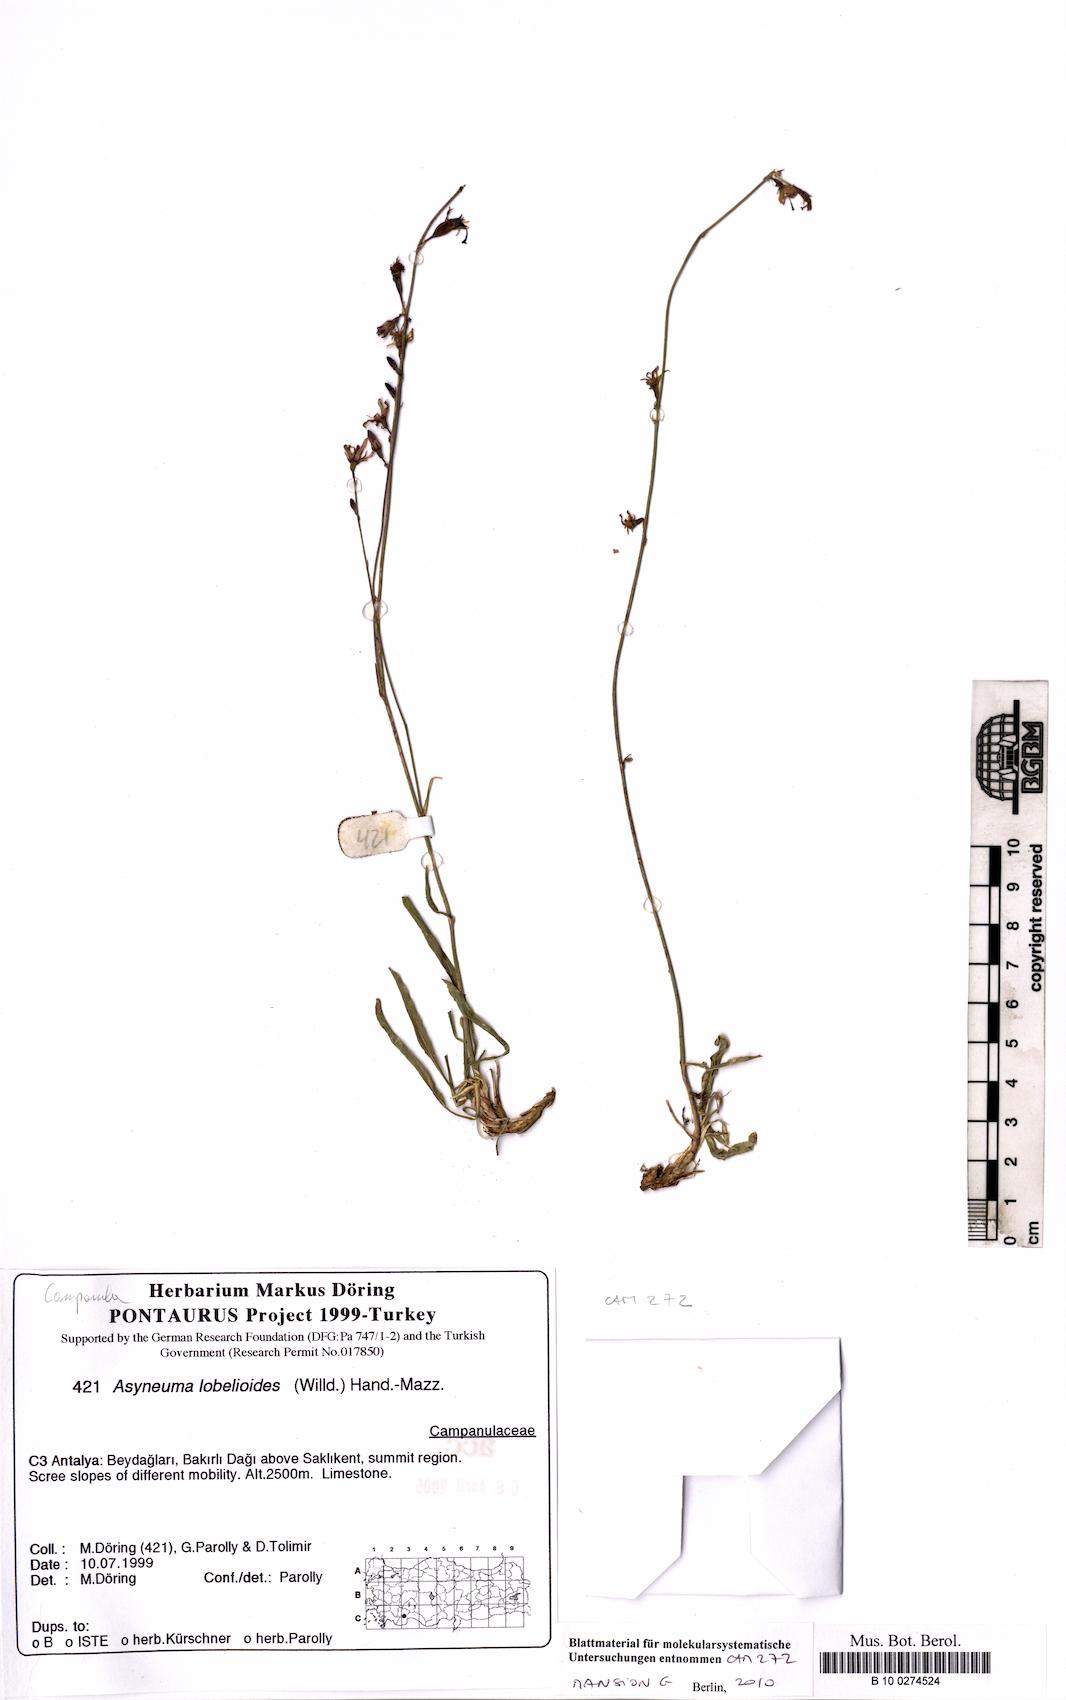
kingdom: Plantae
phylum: Tracheophyta
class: Magnoliopsida
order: Asterales
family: Campanulaceae
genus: Asyneuma
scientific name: Asyneuma lobelioides
